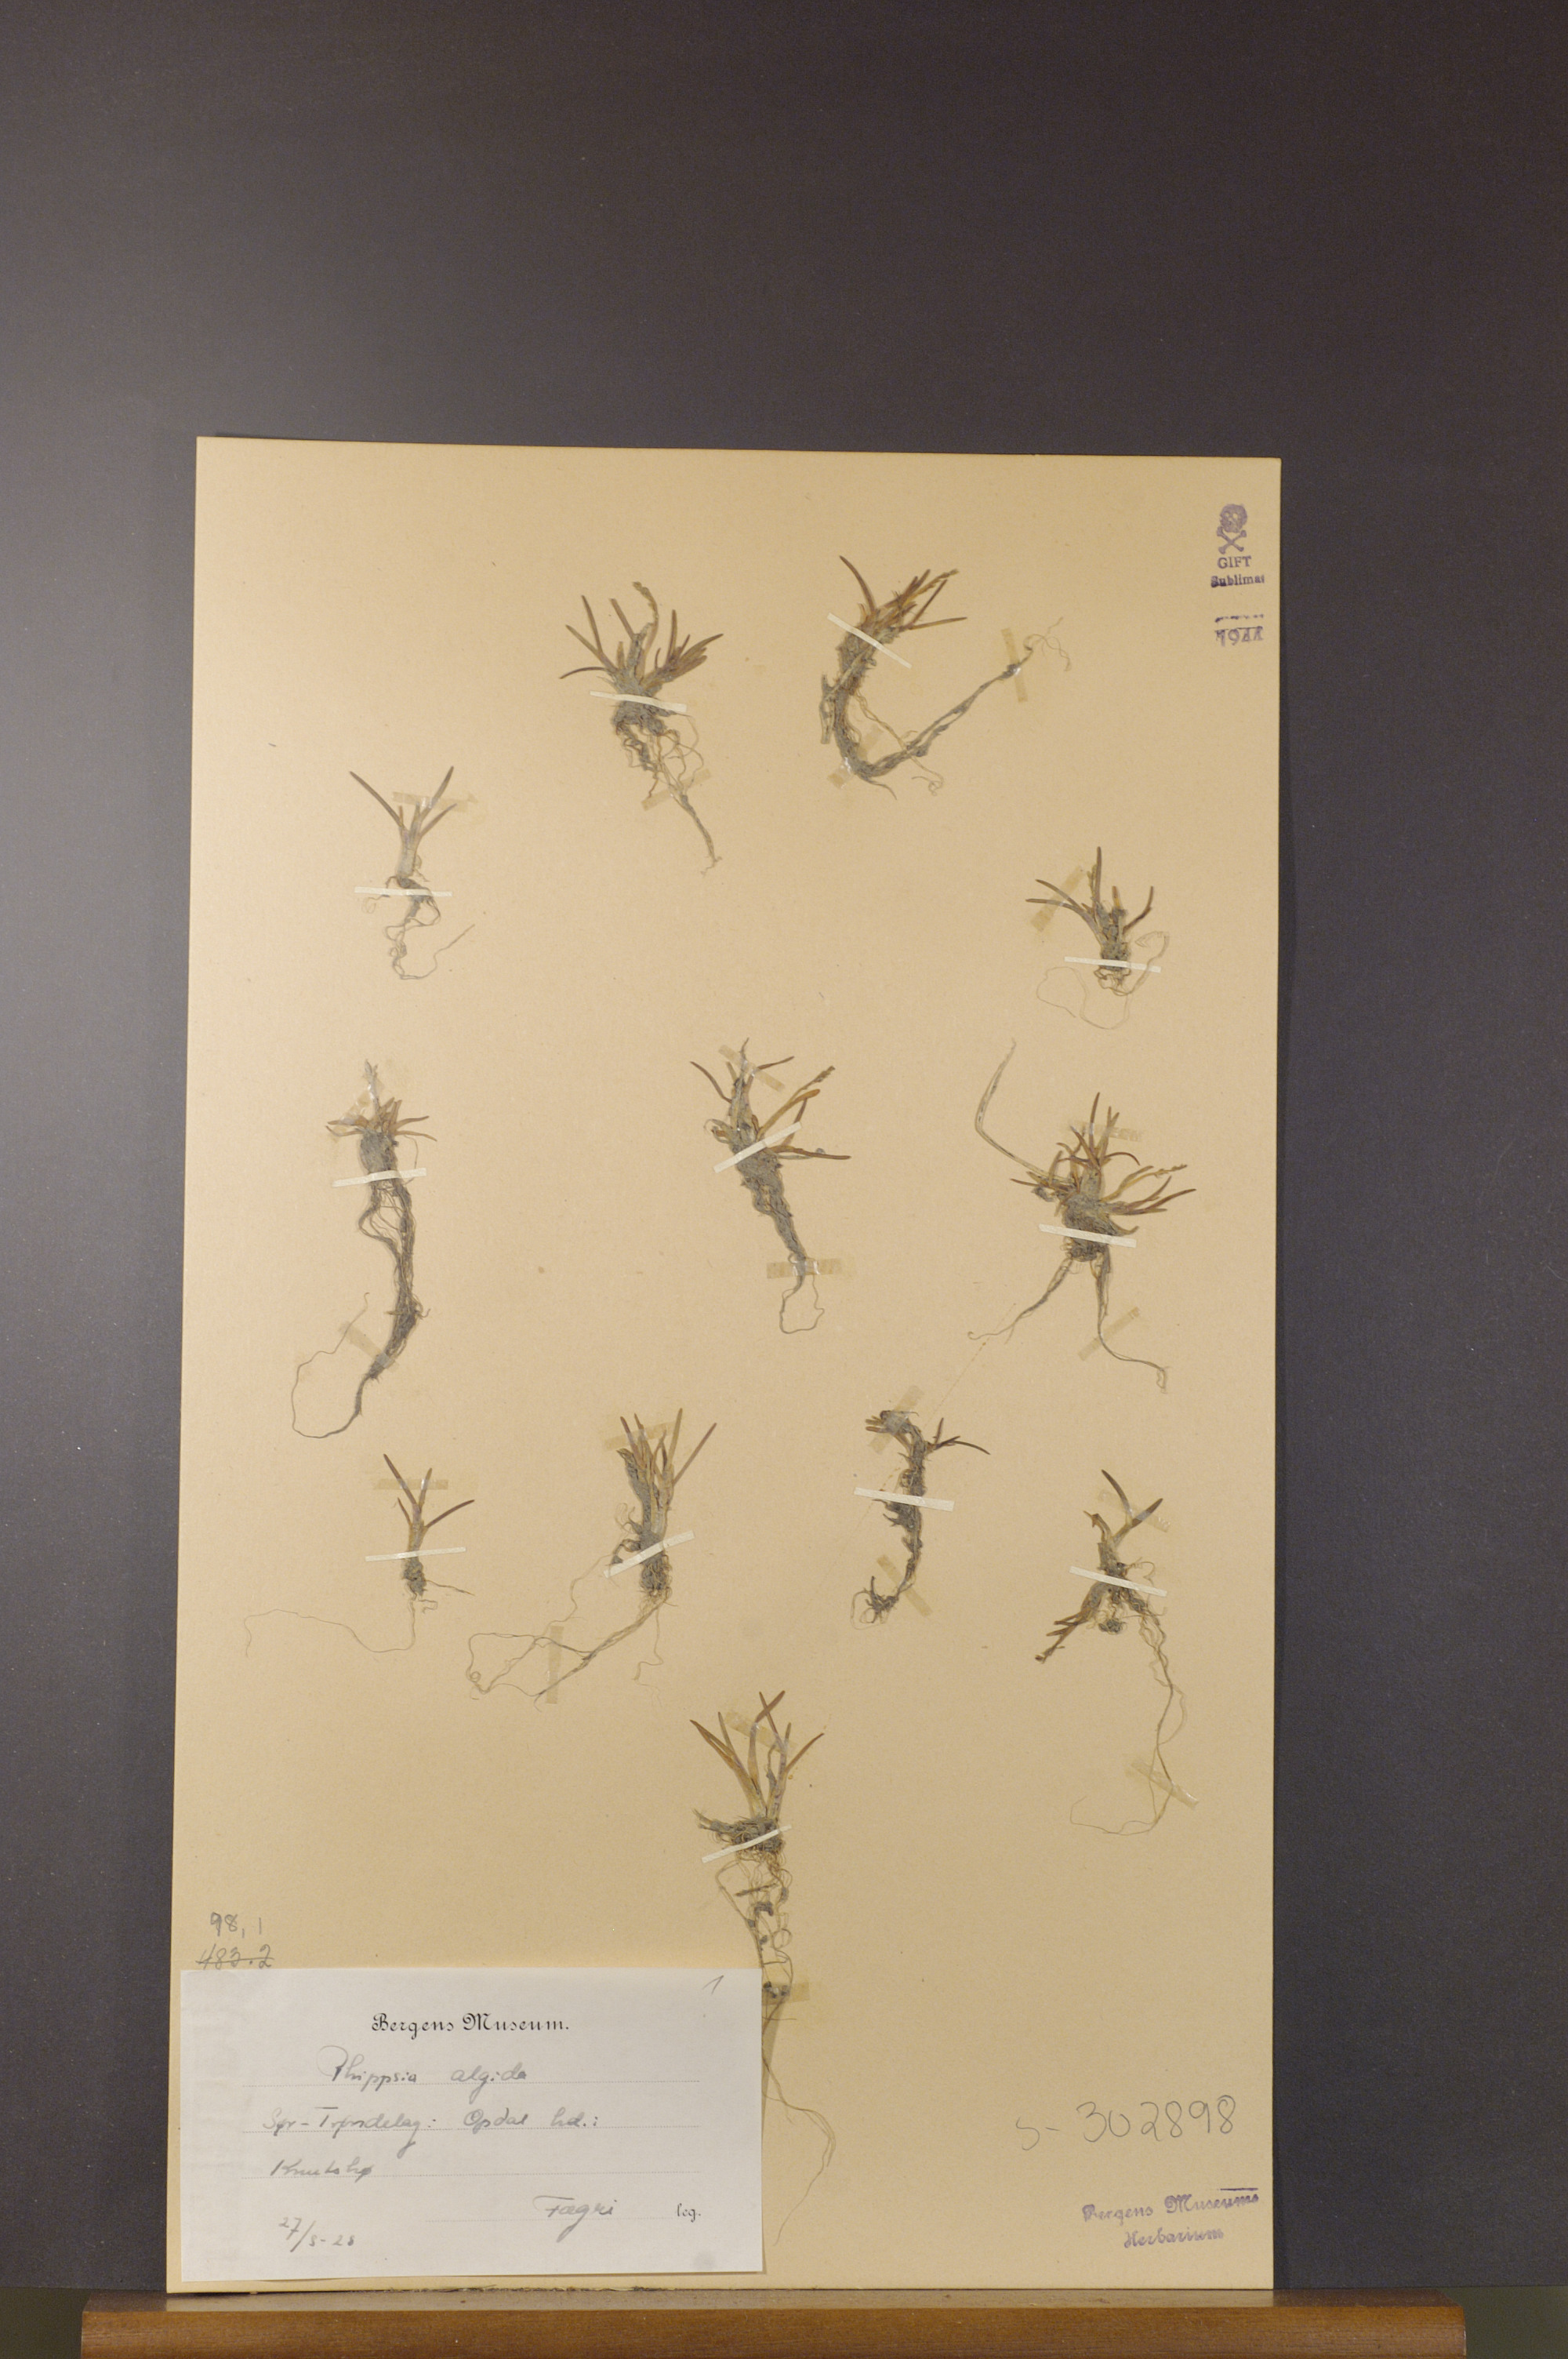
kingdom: Plantae
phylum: Tracheophyta
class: Liliopsida
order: Poales
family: Poaceae
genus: Phippsia
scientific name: Phippsia algida
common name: Ice grass
